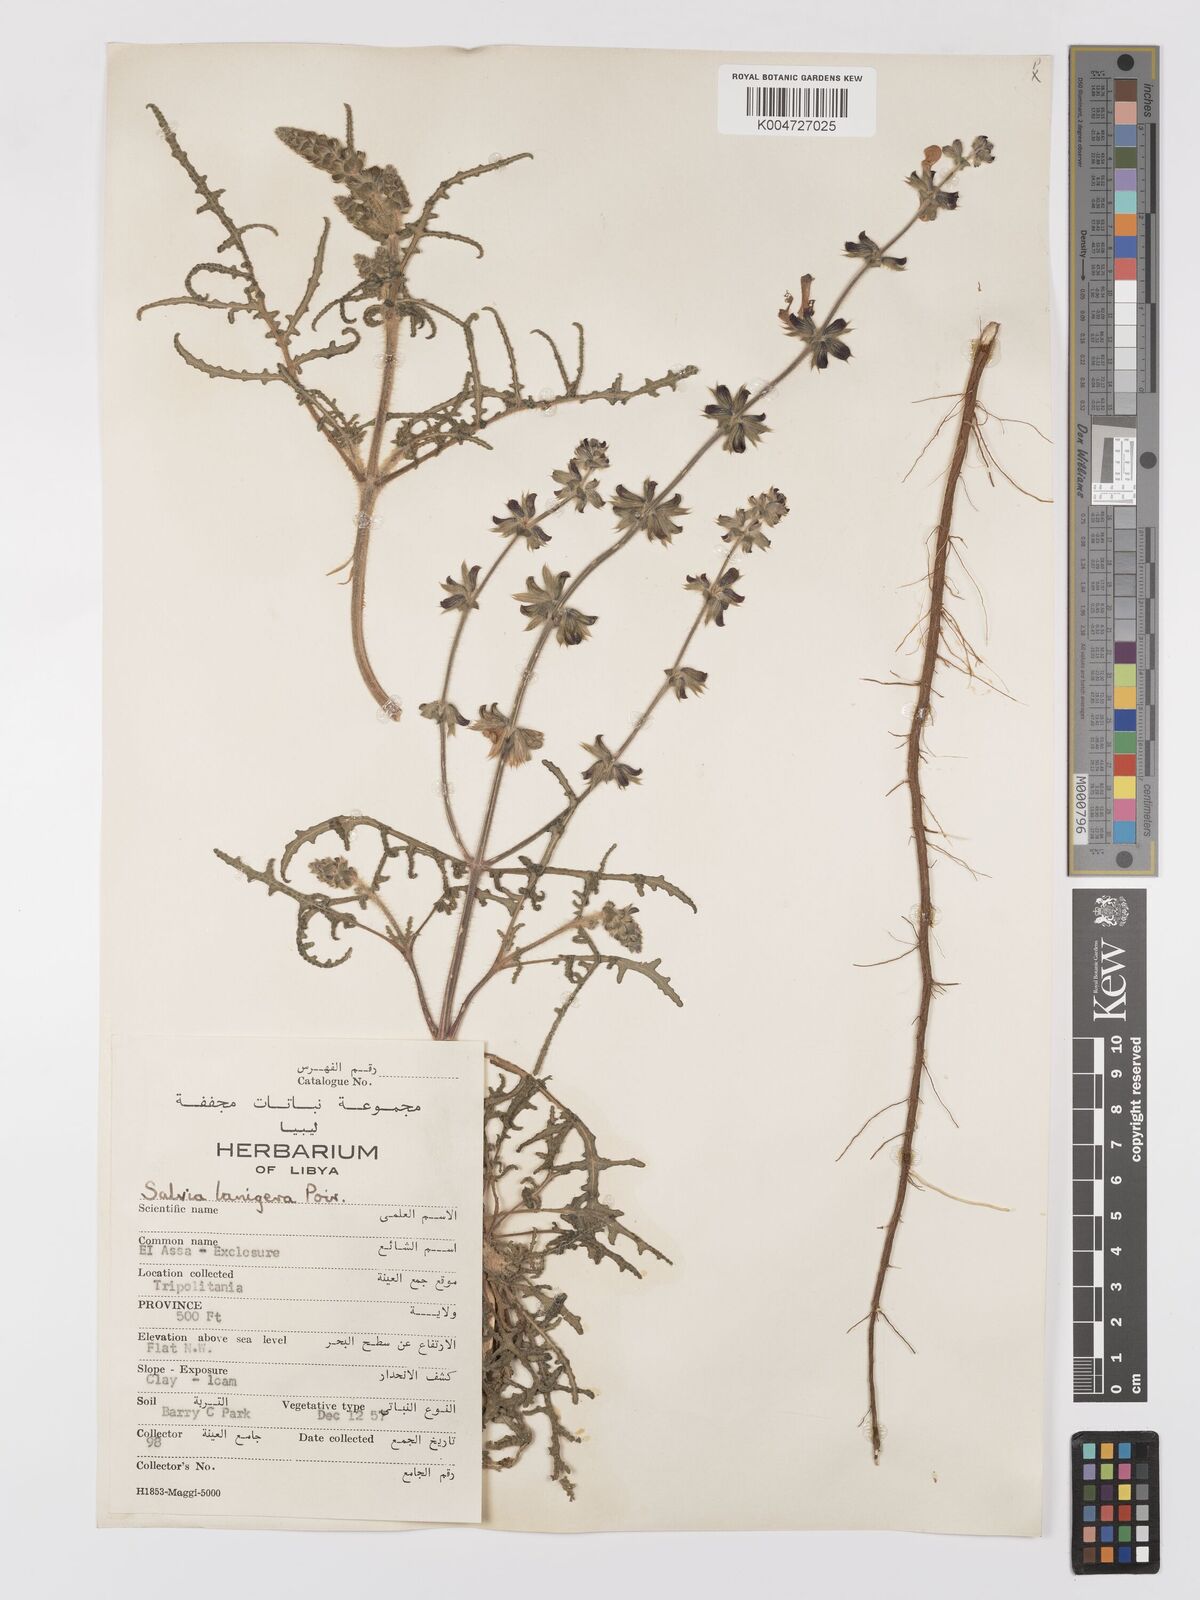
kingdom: Plantae
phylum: Tracheophyta
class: Magnoliopsida
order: Lamiales
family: Lamiaceae
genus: Salvia
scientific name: Salvia lanigera
